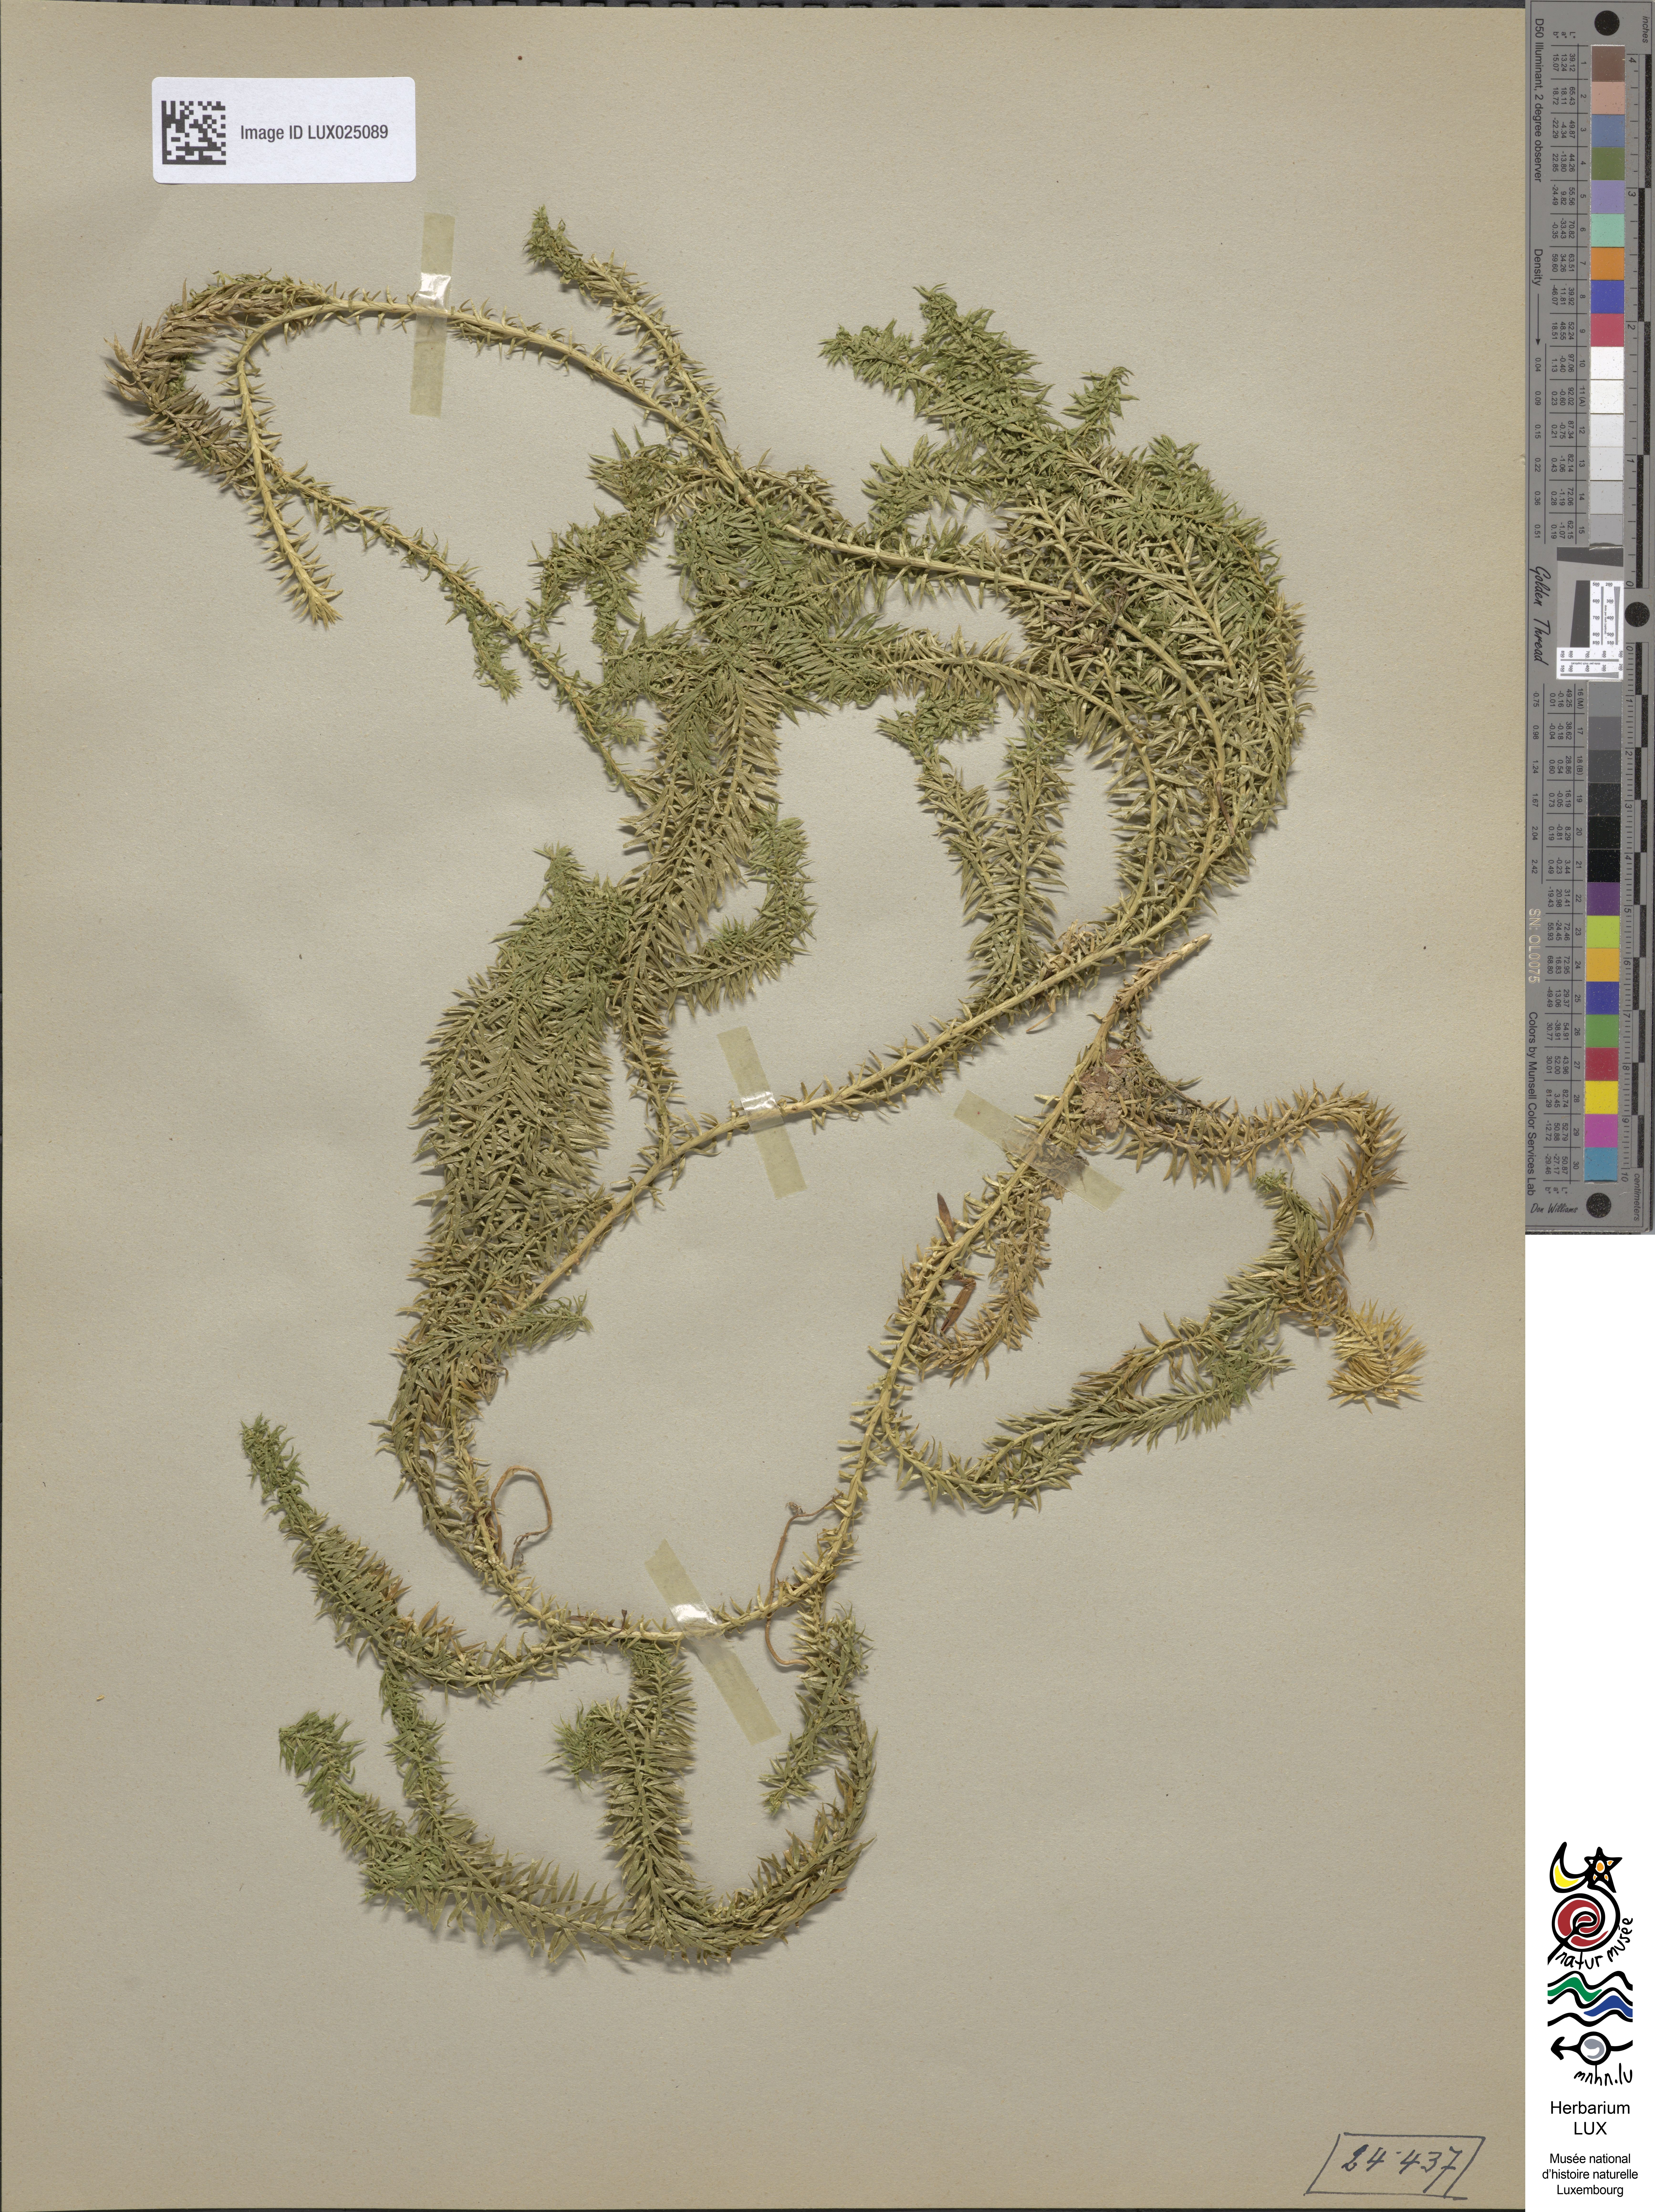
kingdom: Plantae
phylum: Tracheophyta
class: Lycopodiopsida
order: Lycopodiales
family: Lycopodiaceae
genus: Spinulum
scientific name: Spinulum annotinum
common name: Interrupted club-moss
